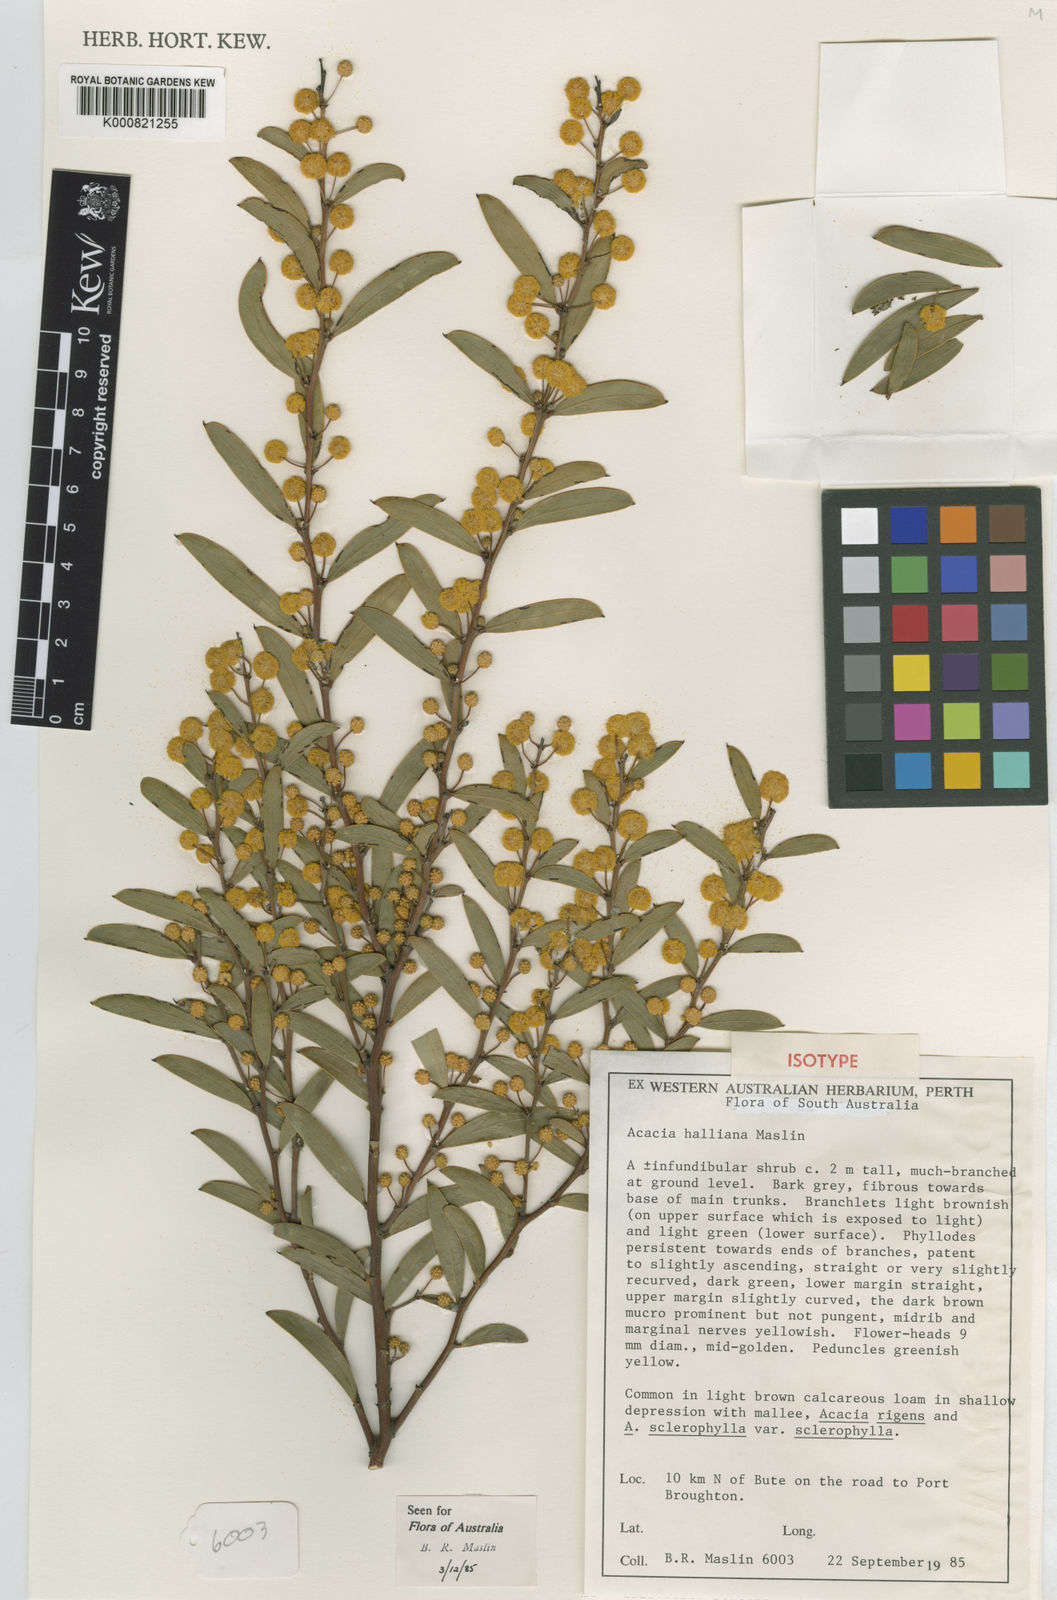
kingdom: Plantae
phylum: Tracheophyta
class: Magnoliopsida
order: Fabales
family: Fabaceae
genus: Acacia
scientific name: Acacia halliana
